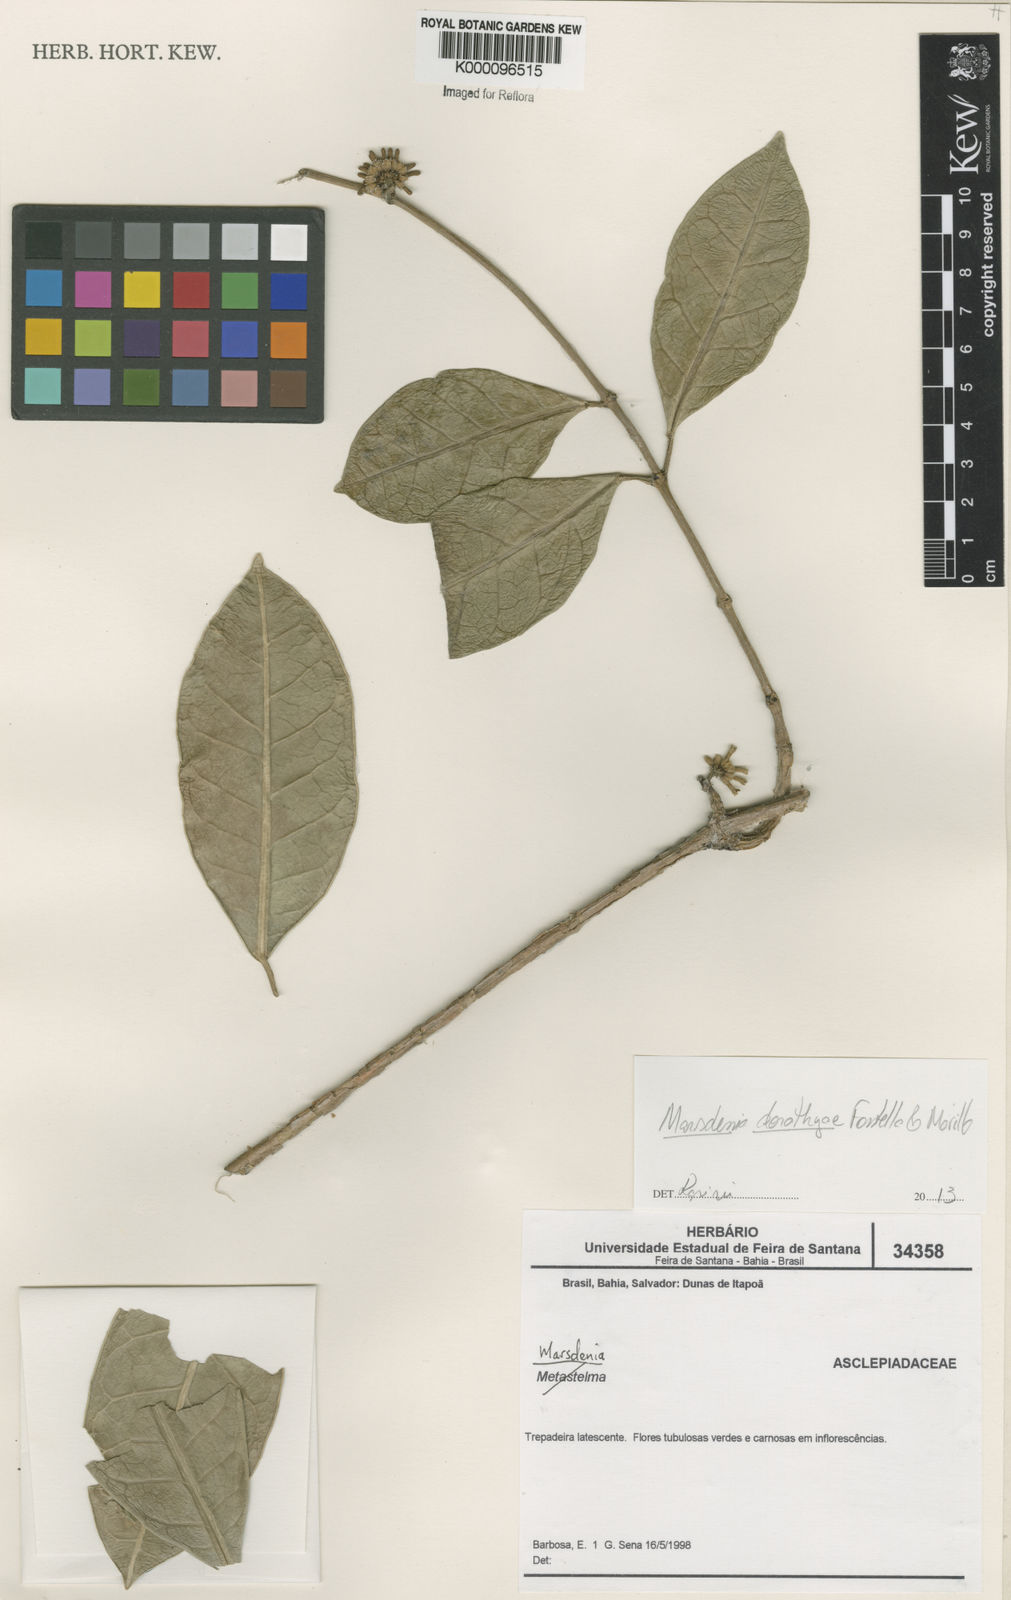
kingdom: Plantae
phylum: Tracheophyta
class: Magnoliopsida
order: Gentianales
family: Apocynaceae
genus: Marsdenia
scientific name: Marsdenia
